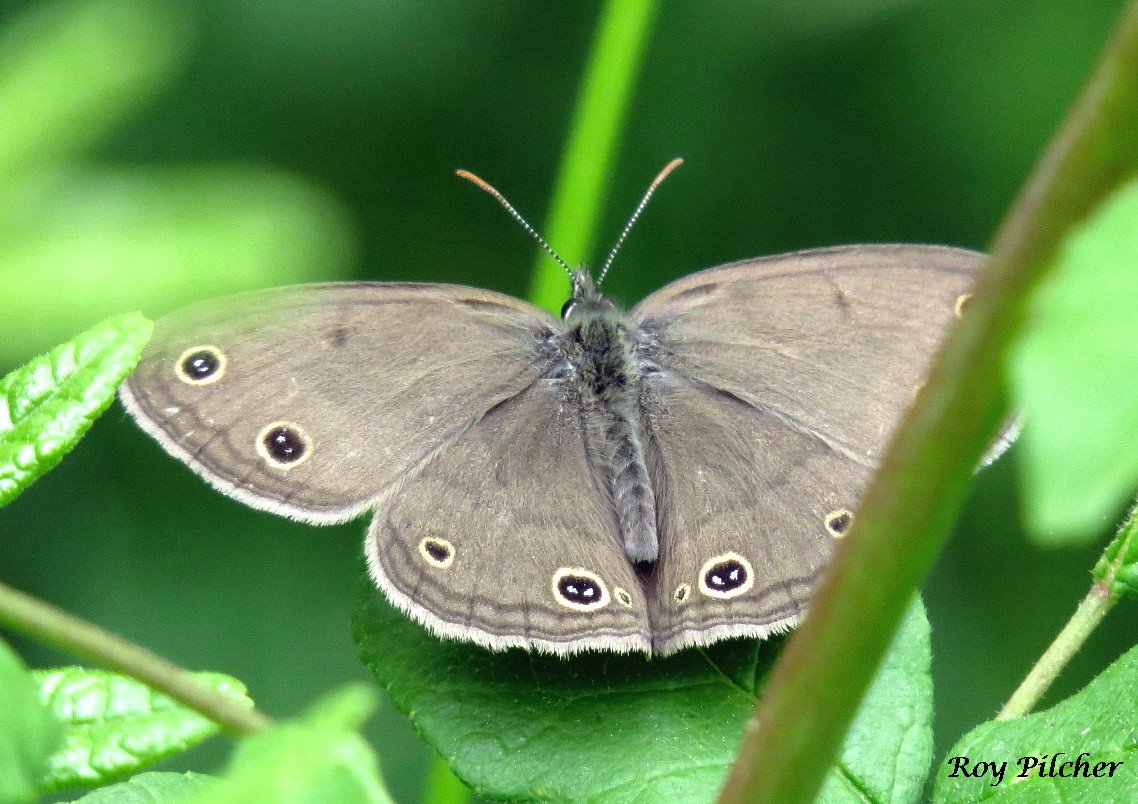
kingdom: Animalia
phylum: Arthropoda
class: Insecta
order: Lepidoptera
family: Nymphalidae
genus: Euptychia
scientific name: Euptychia cymela
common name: Little Wood Satyr
